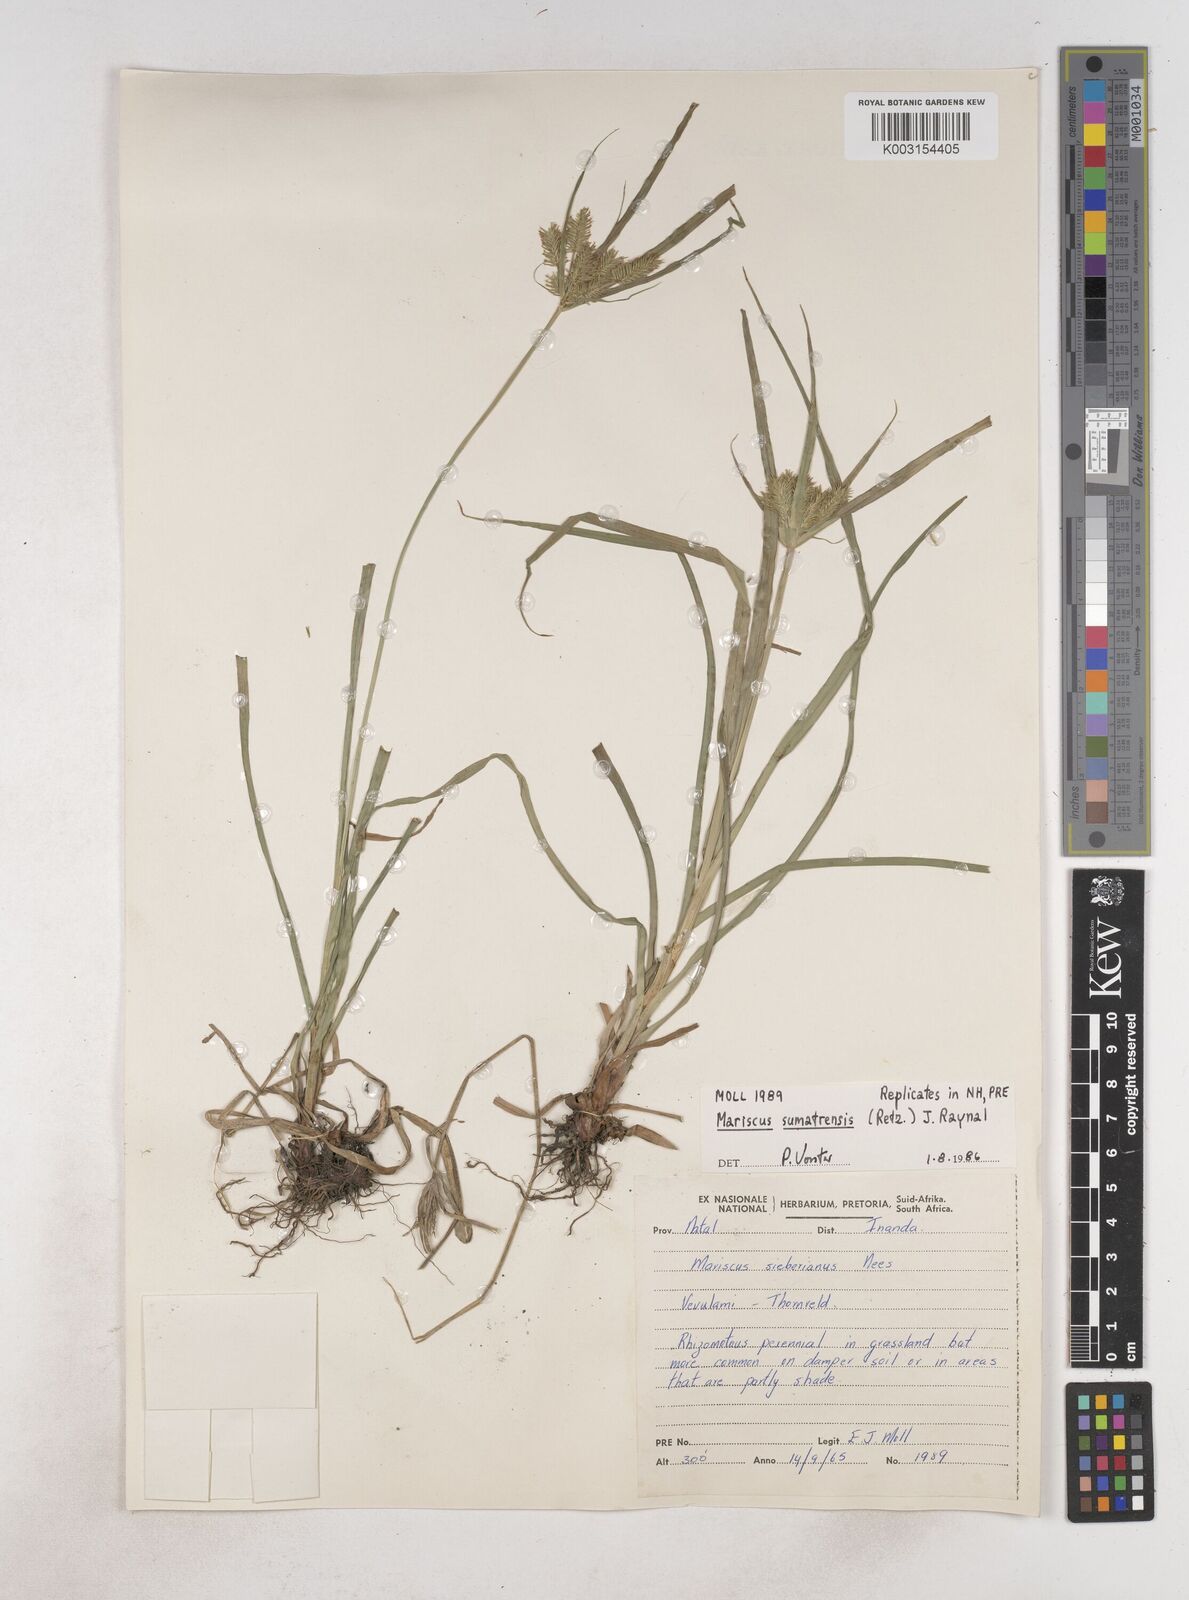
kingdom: Plantae
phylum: Tracheophyta
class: Liliopsida
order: Poales
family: Cyperaceae
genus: Cyperus
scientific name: Cyperus cyperoides
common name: Pacific island flat sedge
